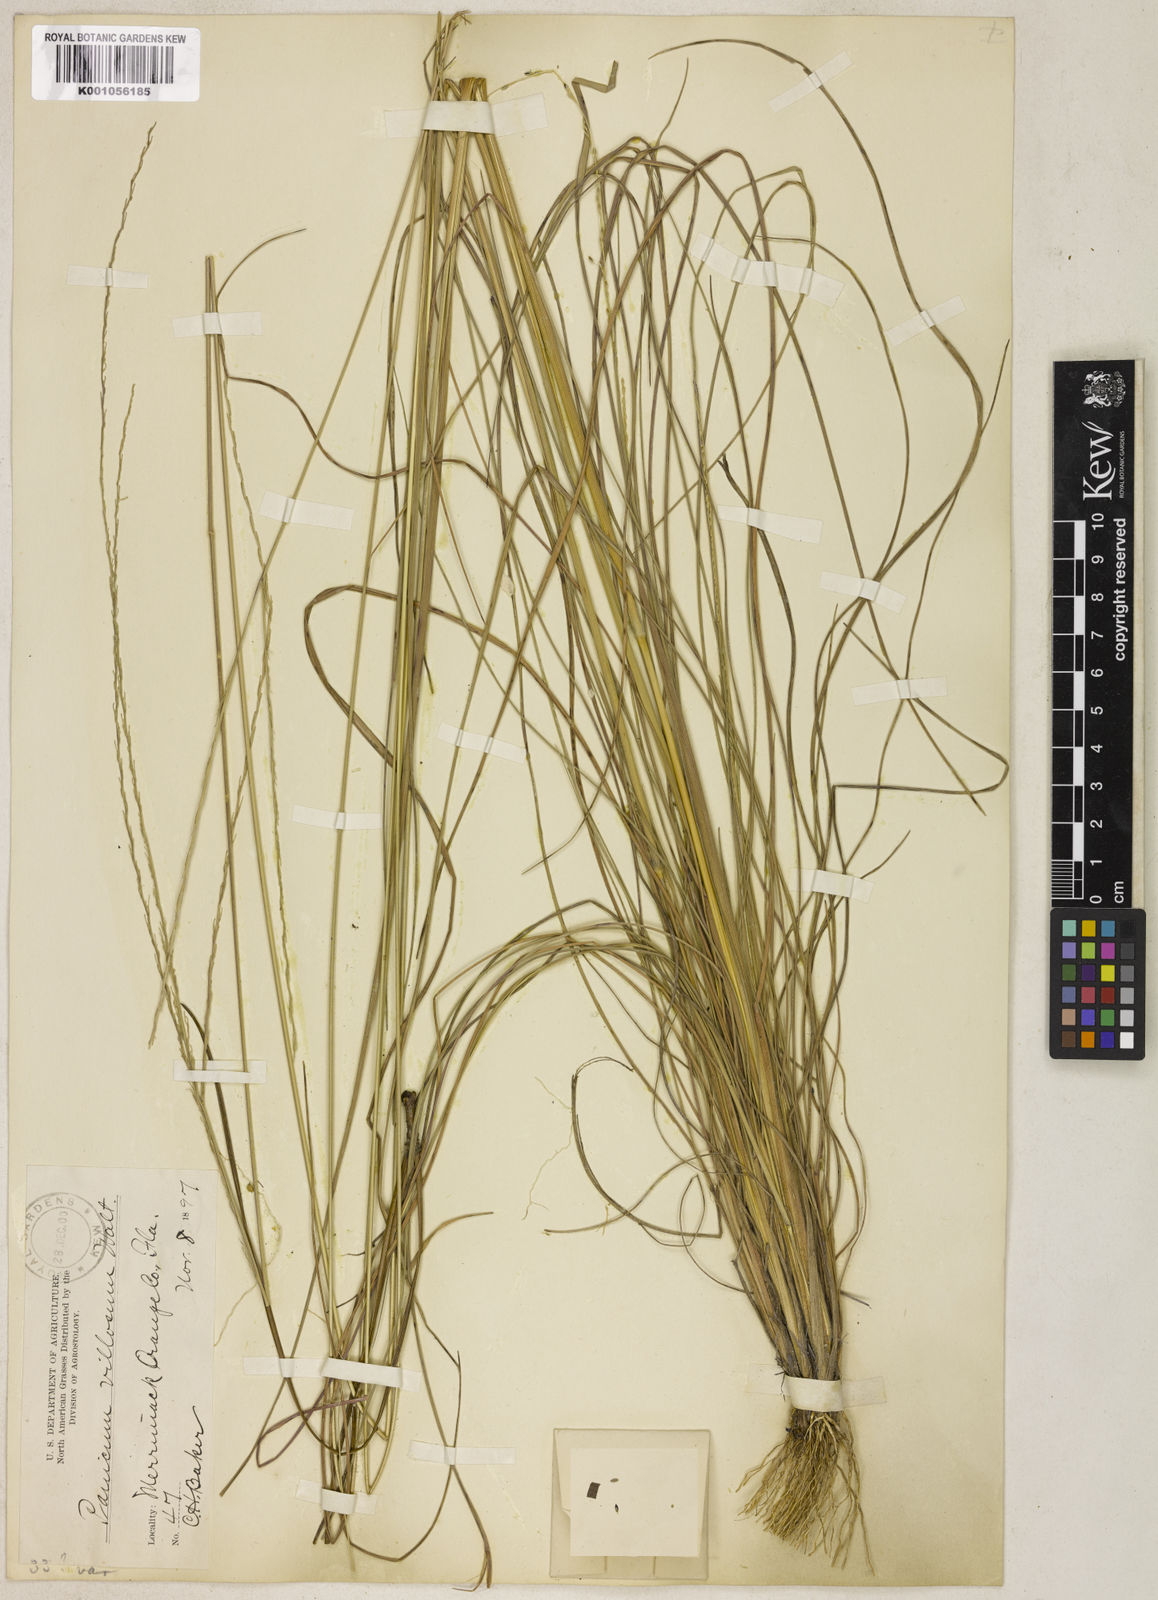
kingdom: Plantae
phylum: Tracheophyta
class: Liliopsida
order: Poales
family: Poaceae
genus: Digitaria
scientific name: Digitaria gracillima
